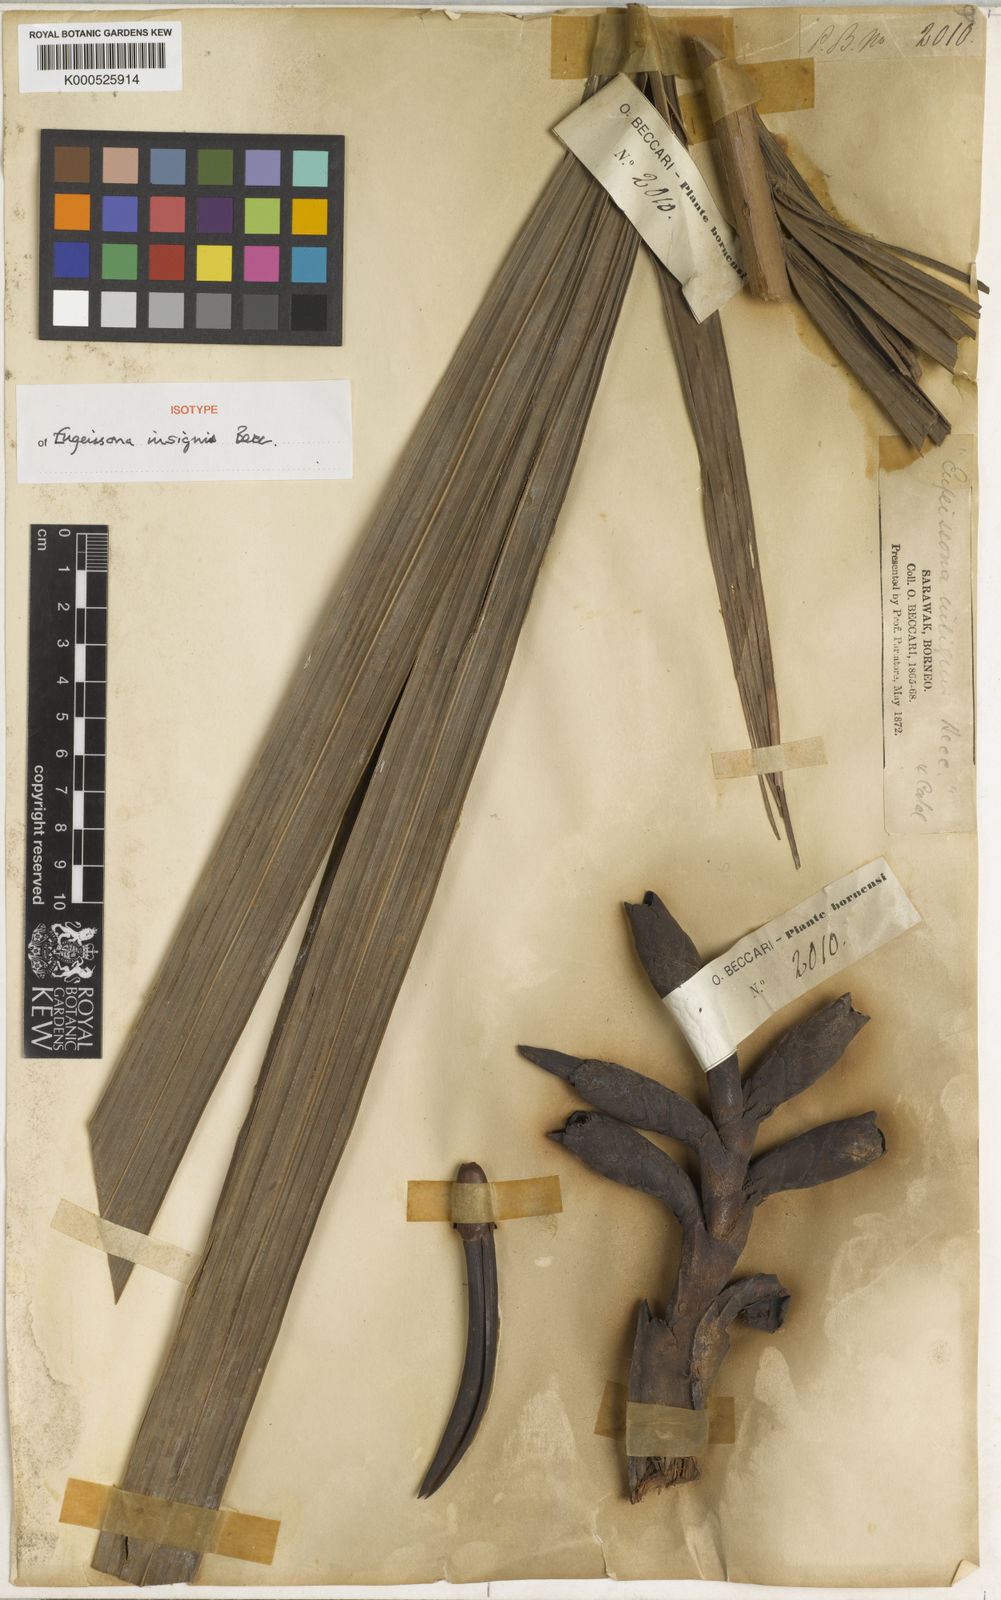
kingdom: Plantae
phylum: Tracheophyta
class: Liliopsida
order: Arecales
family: Arecaceae
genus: Eugeissona
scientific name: Eugeissona insignis
